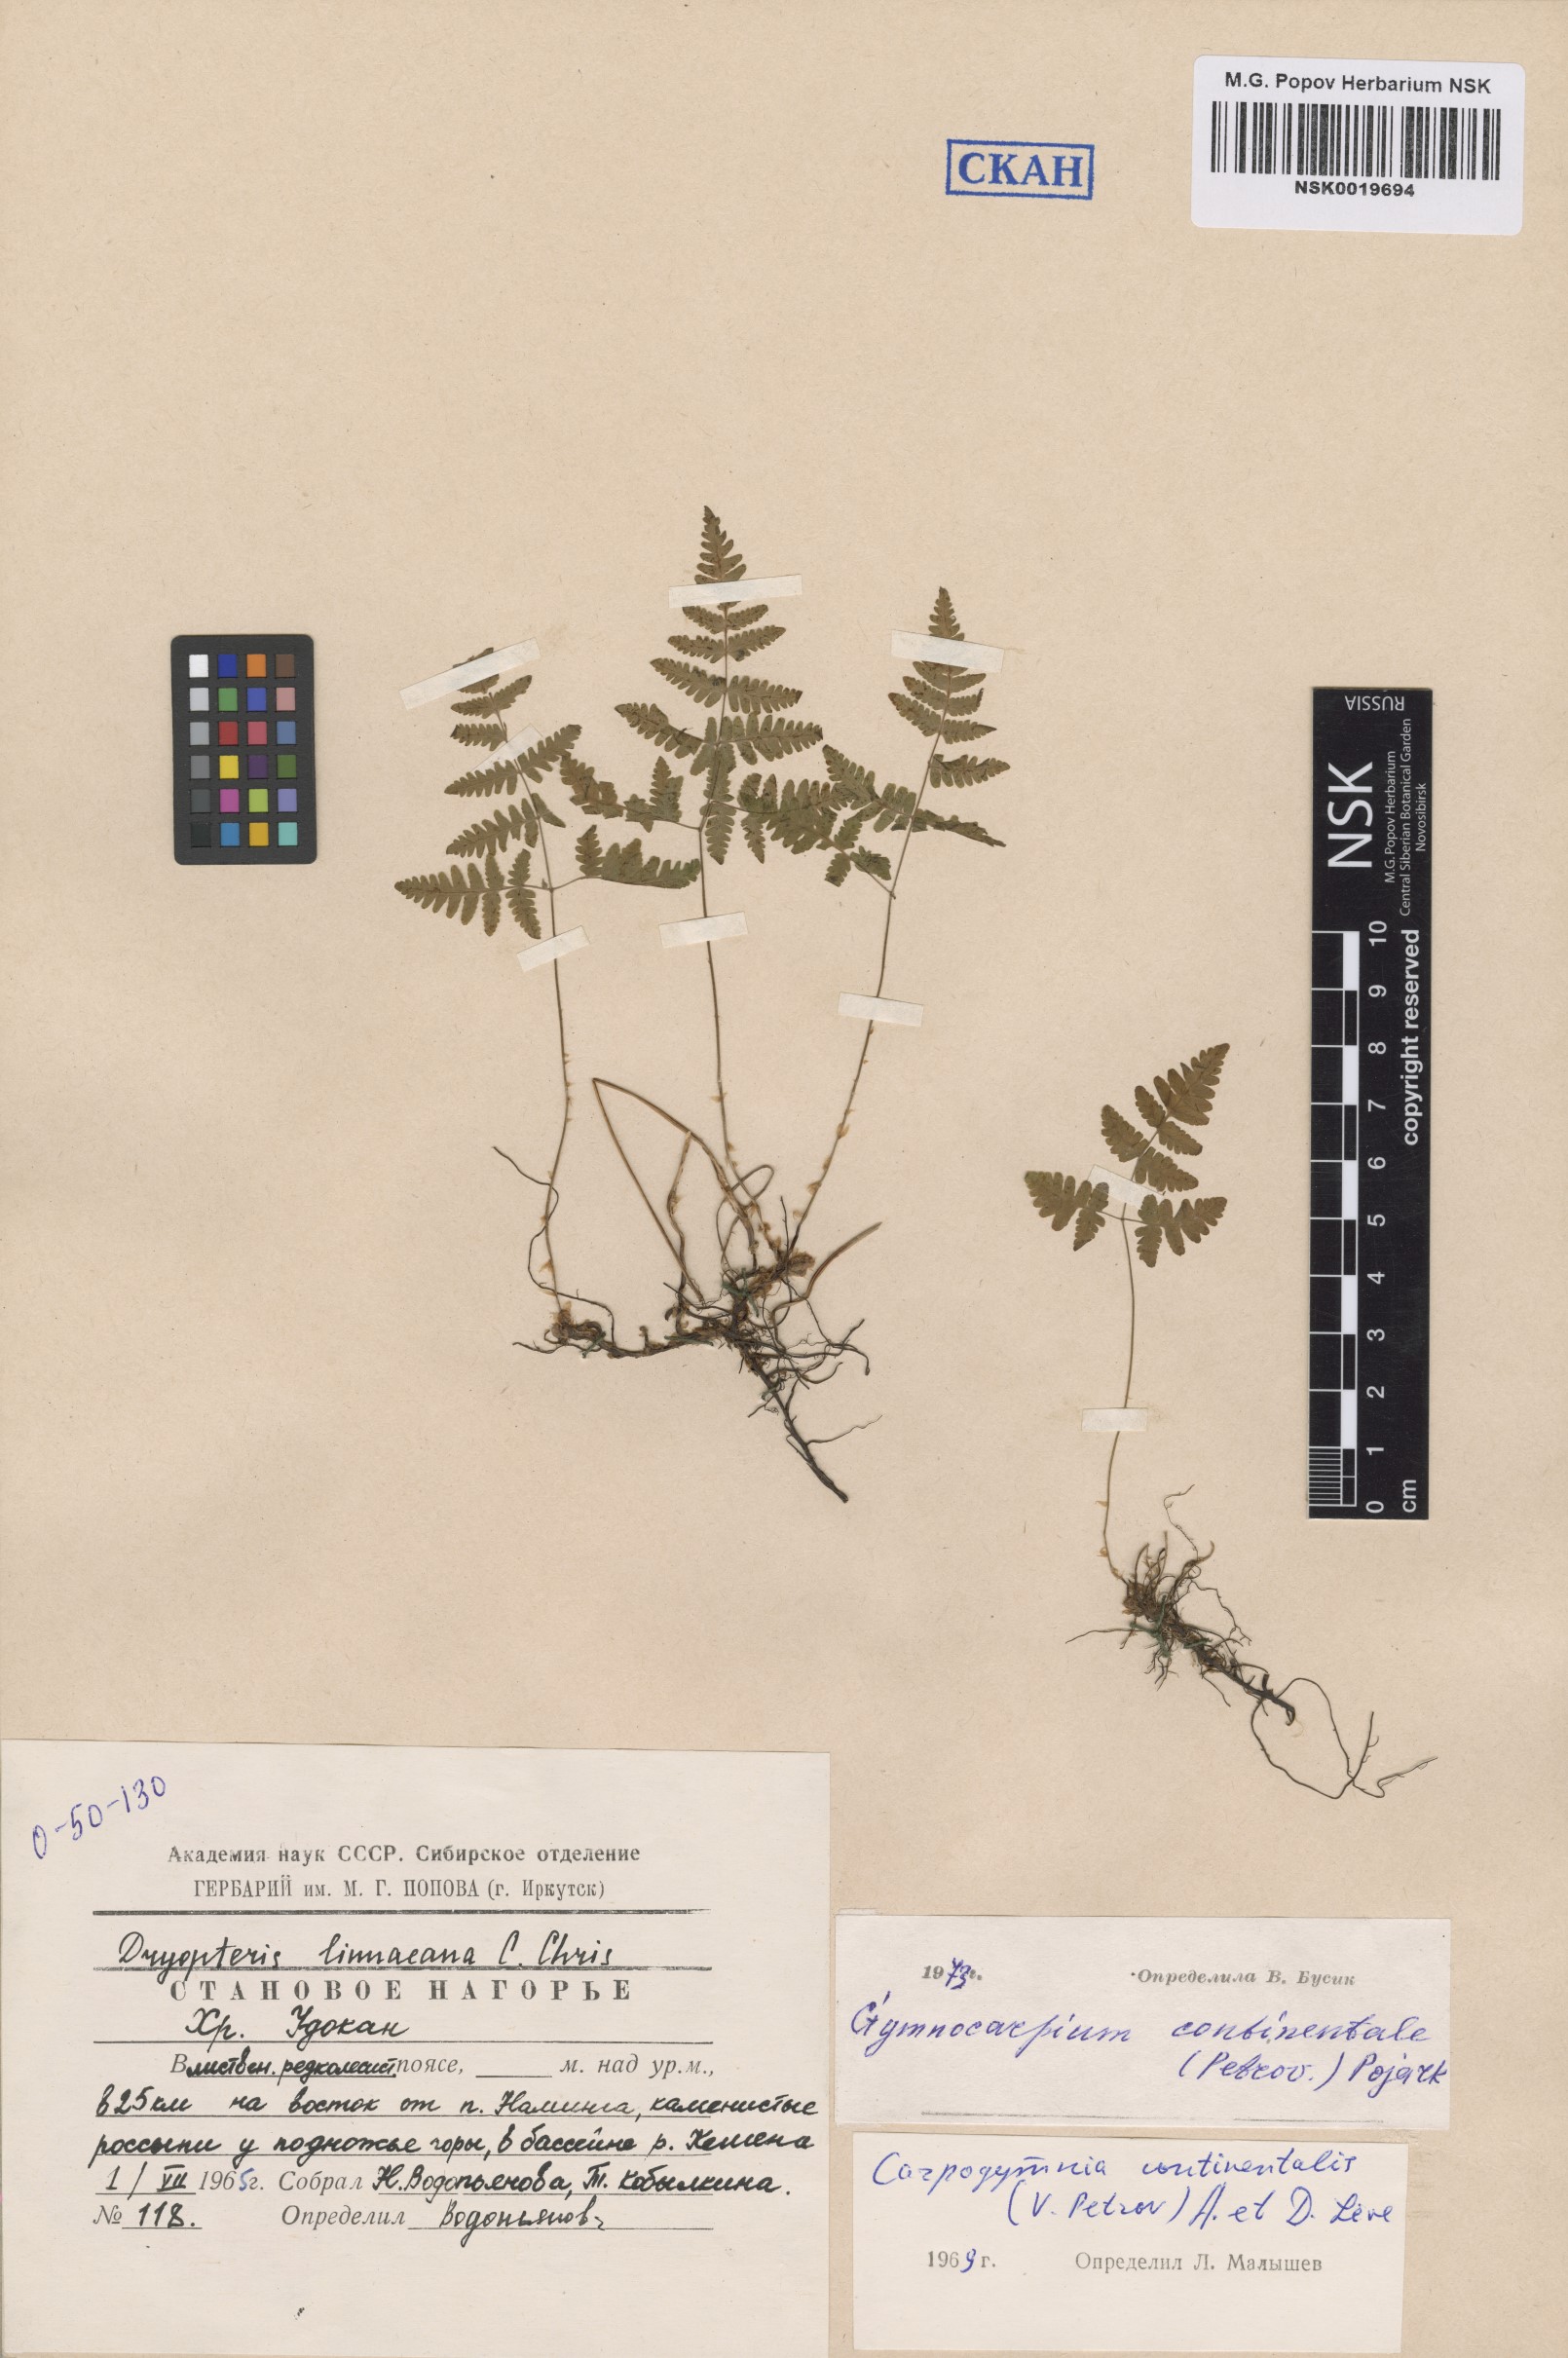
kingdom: Plantae
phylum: Tracheophyta
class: Polypodiopsida
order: Polypodiales
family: Cystopteridaceae
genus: Gymnocarpium
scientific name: Gymnocarpium continentale
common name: Asian oak fern
